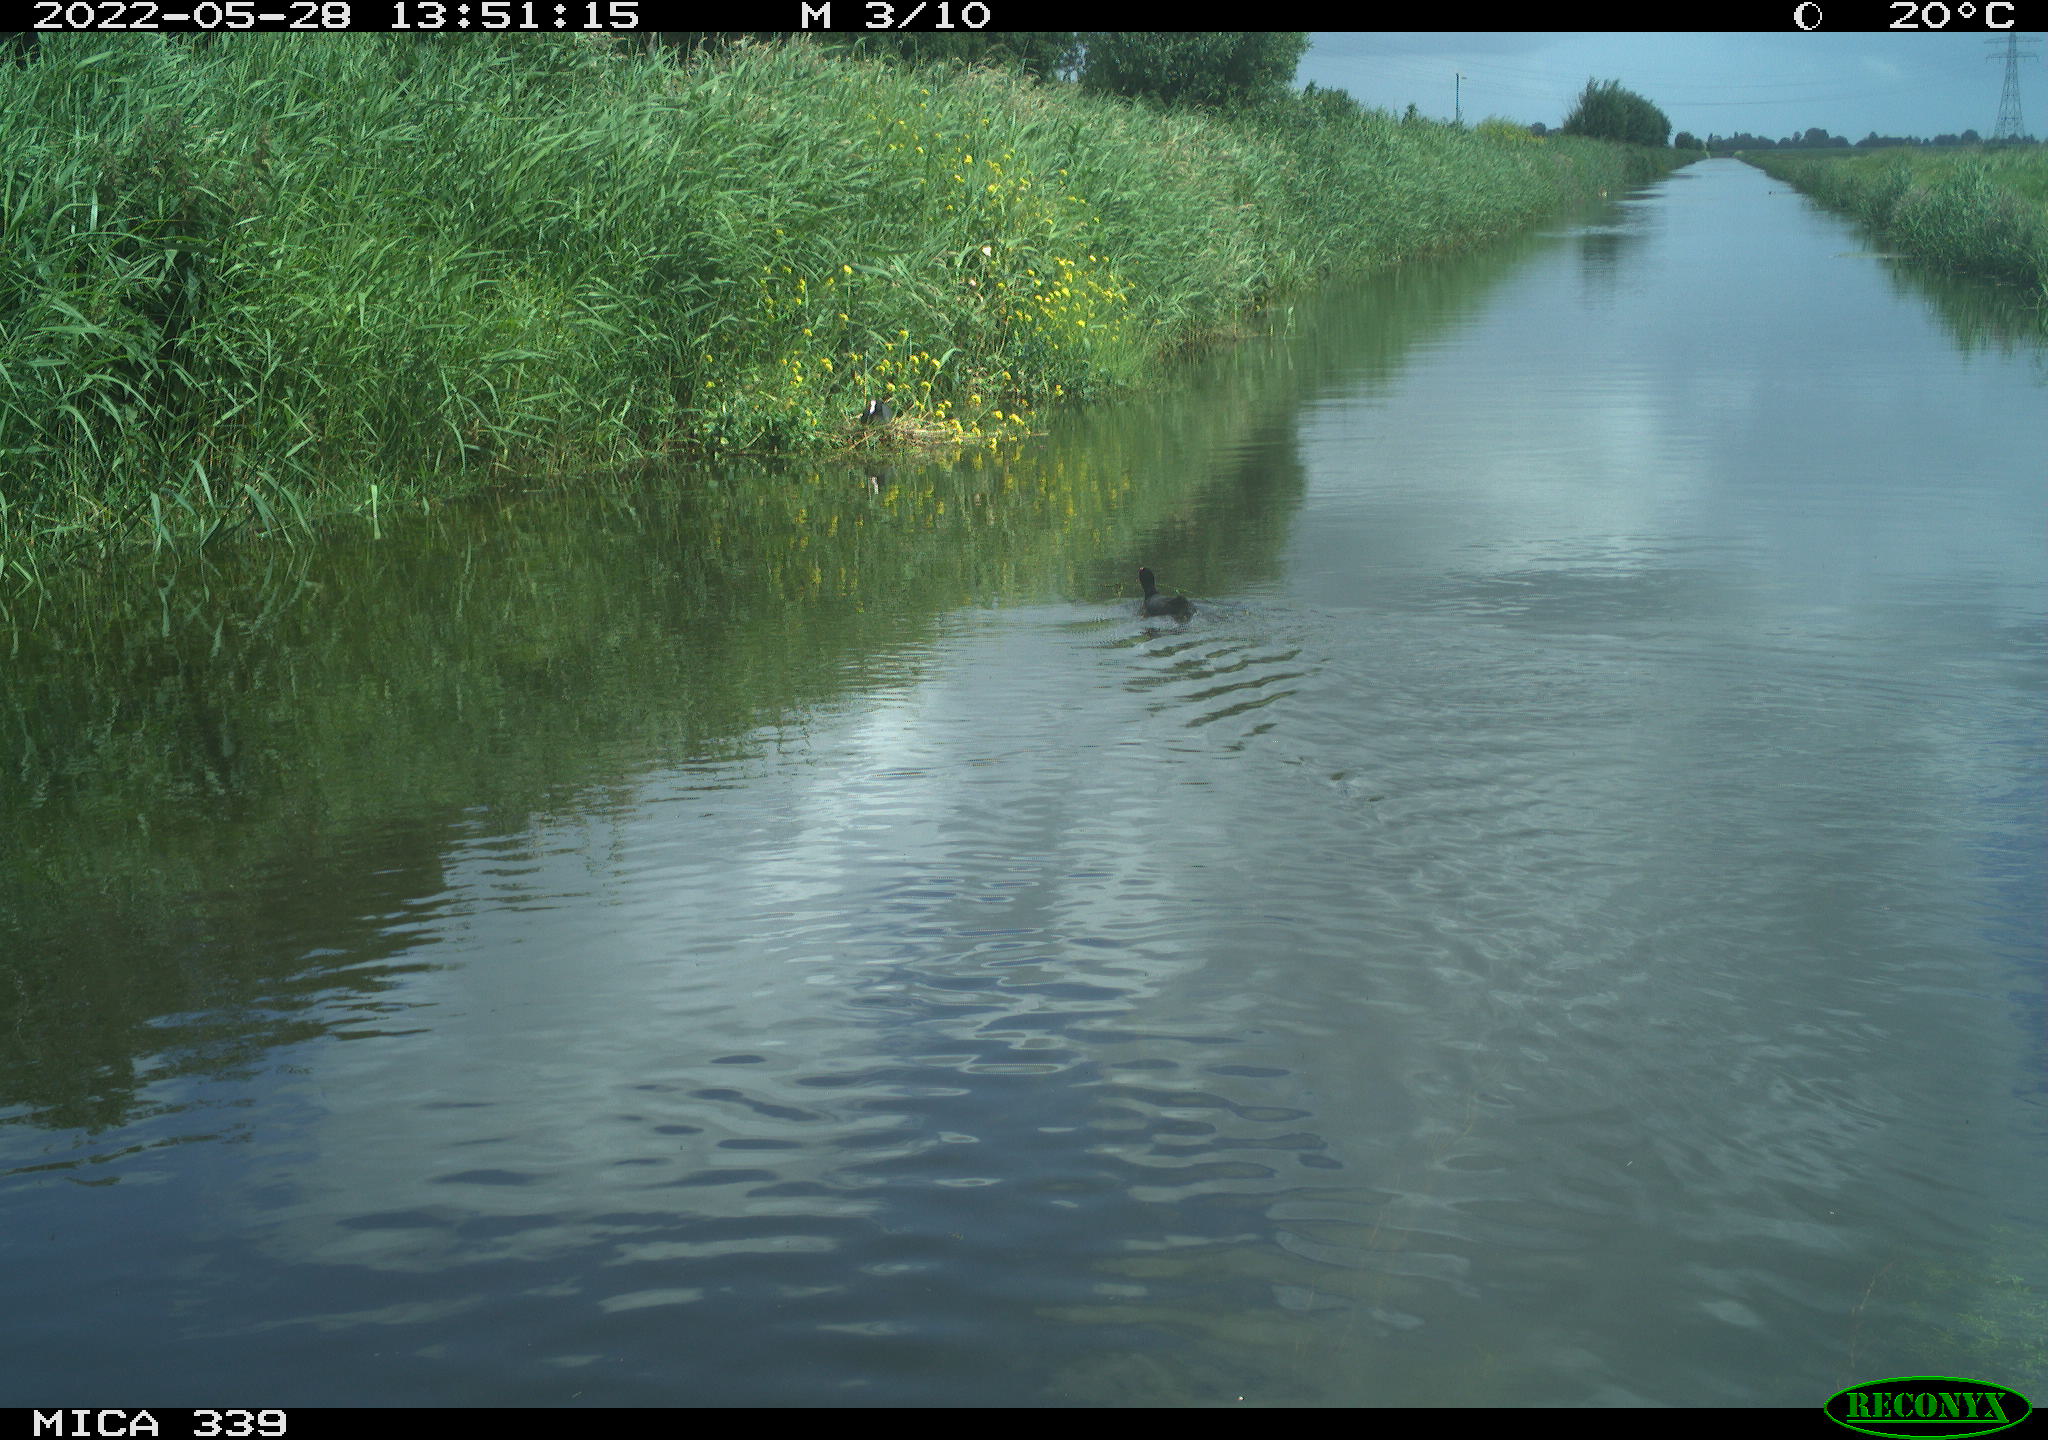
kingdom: Animalia
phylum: Chordata
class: Aves
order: Gruiformes
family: Rallidae
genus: Fulica
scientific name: Fulica atra
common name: Eurasian coot
